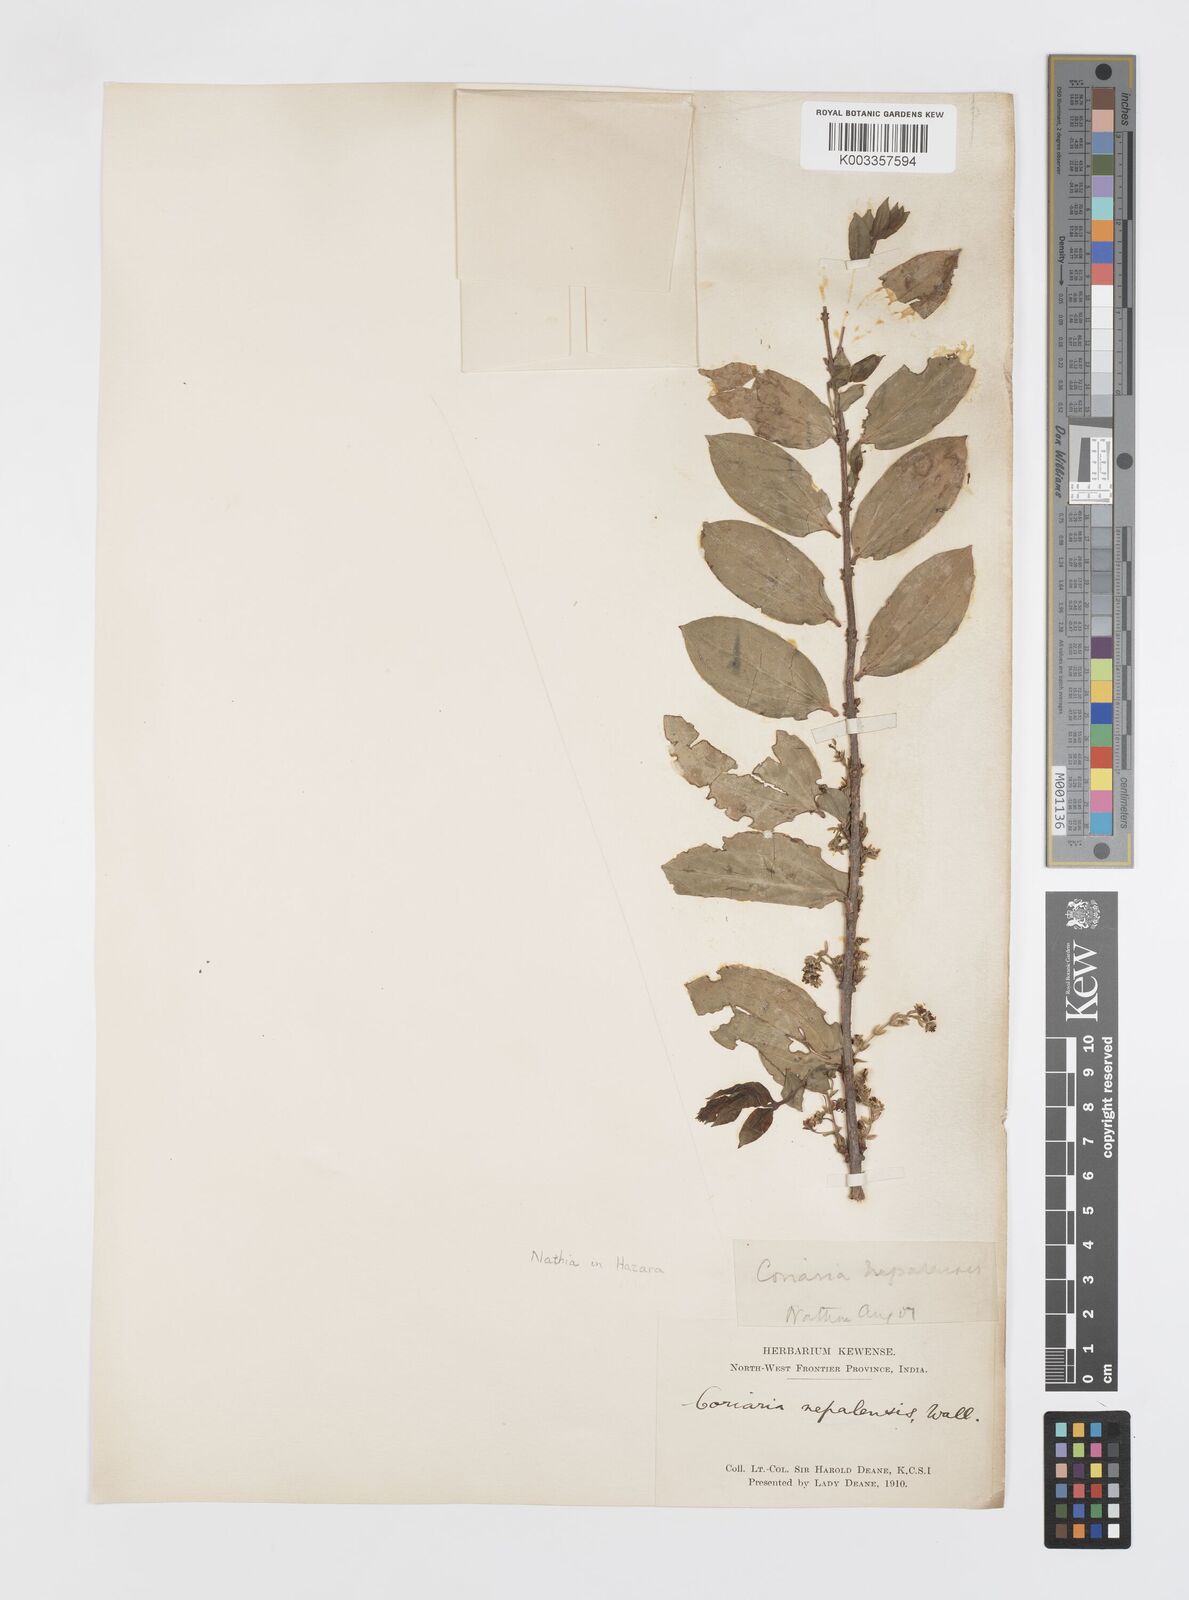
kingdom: Plantae
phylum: Tracheophyta
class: Magnoliopsida
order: Cucurbitales
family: Coriariaceae
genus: Coriaria
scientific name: Coriaria napalensis
